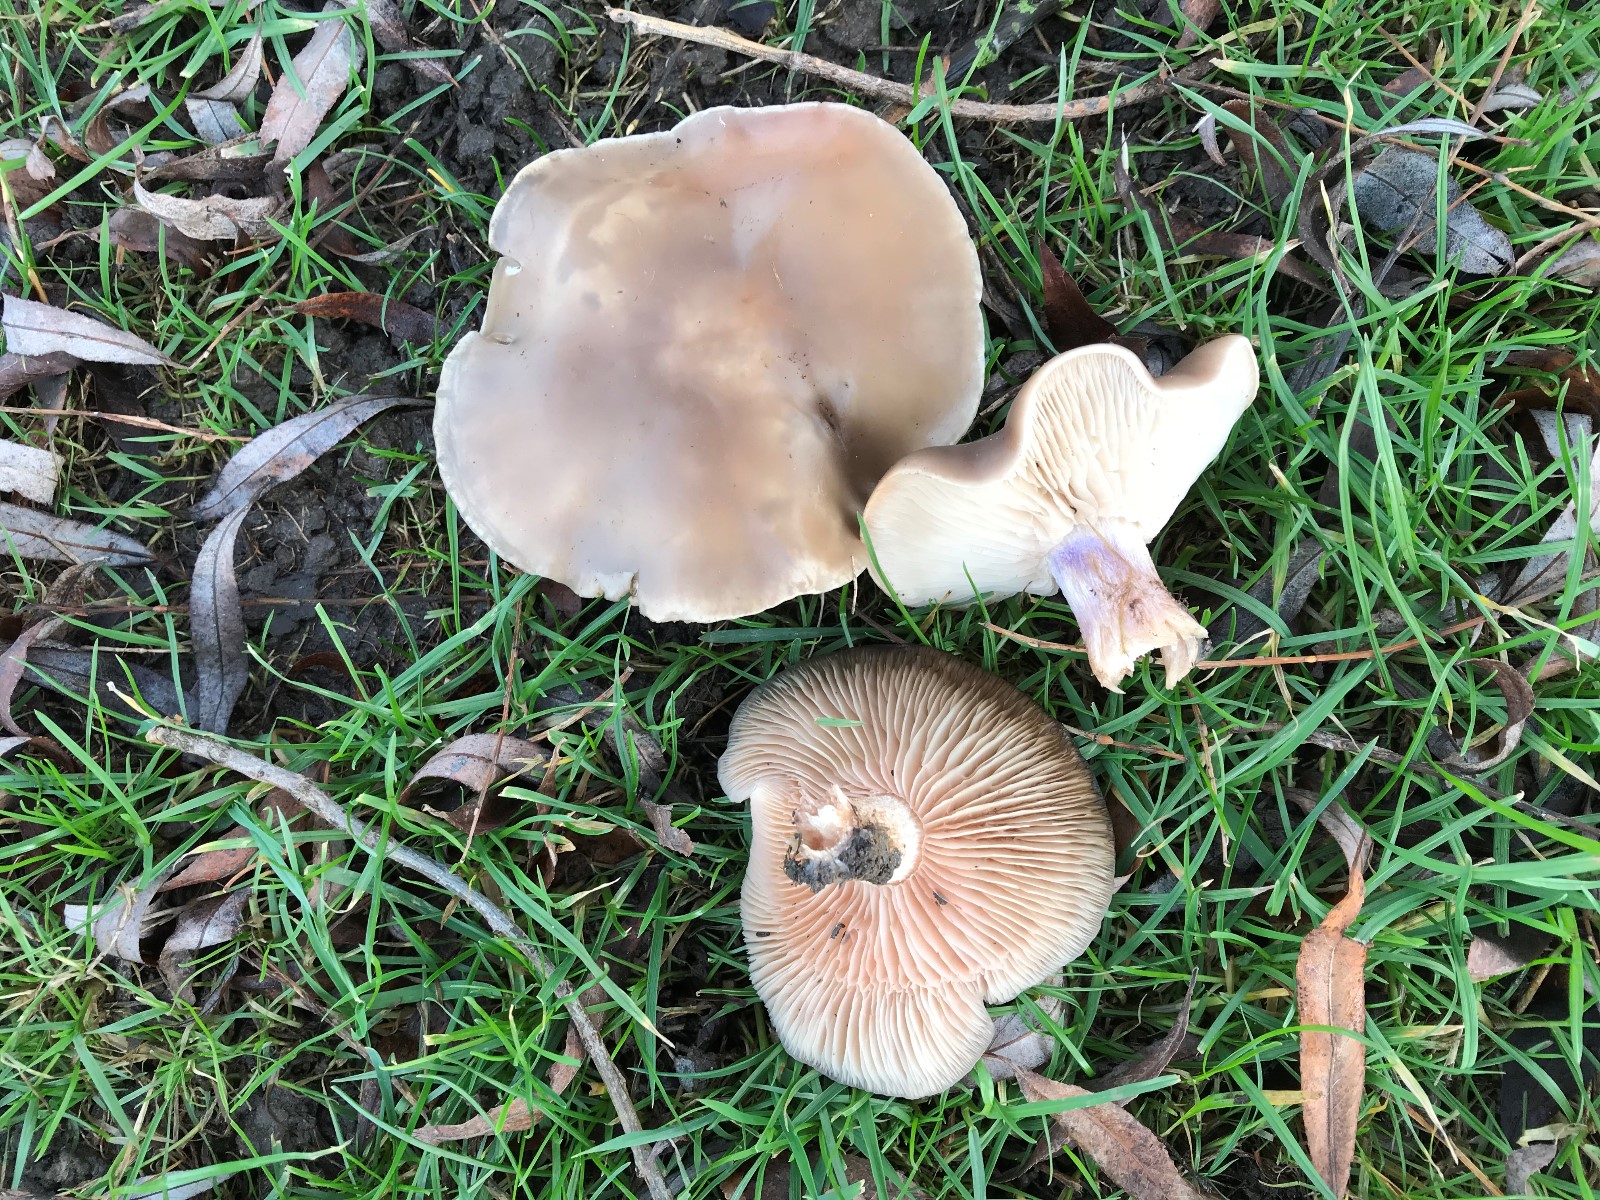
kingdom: Fungi
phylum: Basidiomycota
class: Agaricomycetes
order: Agaricales
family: Tricholomataceae
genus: Lepista
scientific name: Lepista personata
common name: bleg hekseringshat
